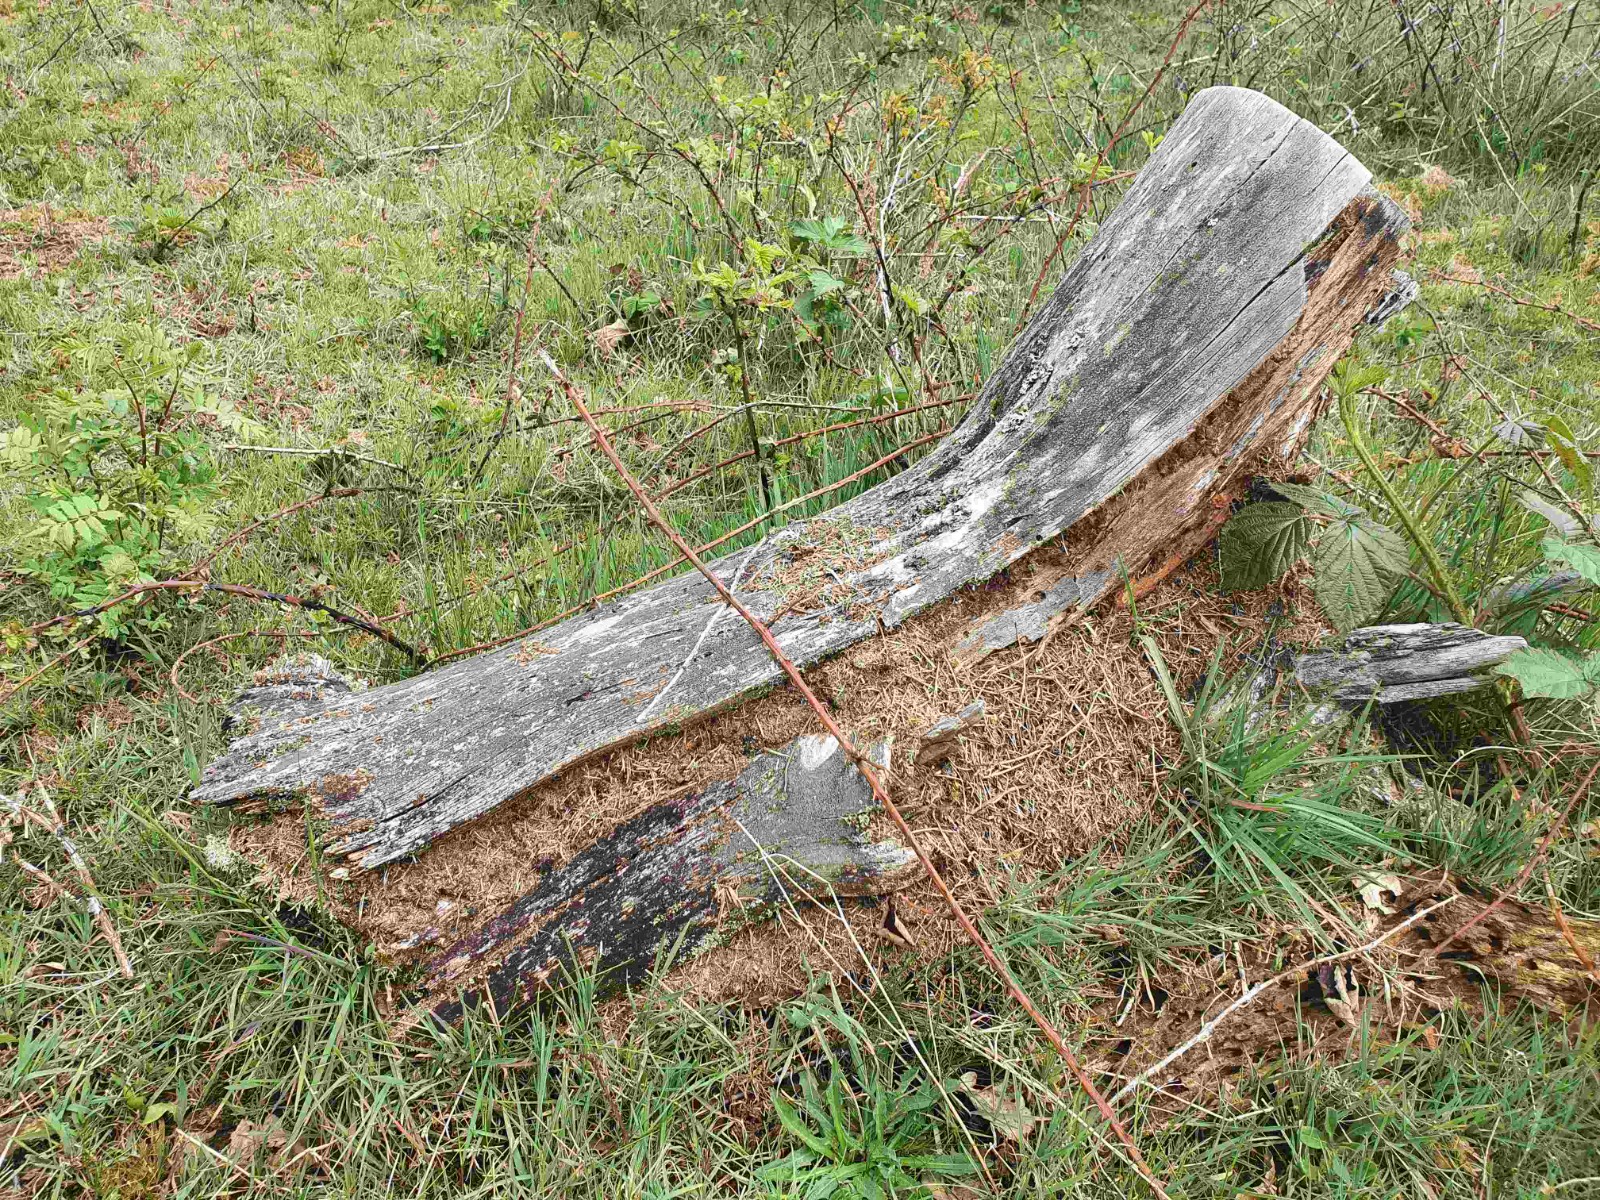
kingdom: Fungi
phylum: Ascomycota
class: Lecanoromycetes
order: Lecanorales
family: Cladoniaceae
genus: Cladonia
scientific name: Cladonia botrytes
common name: træstub-bægerlav
